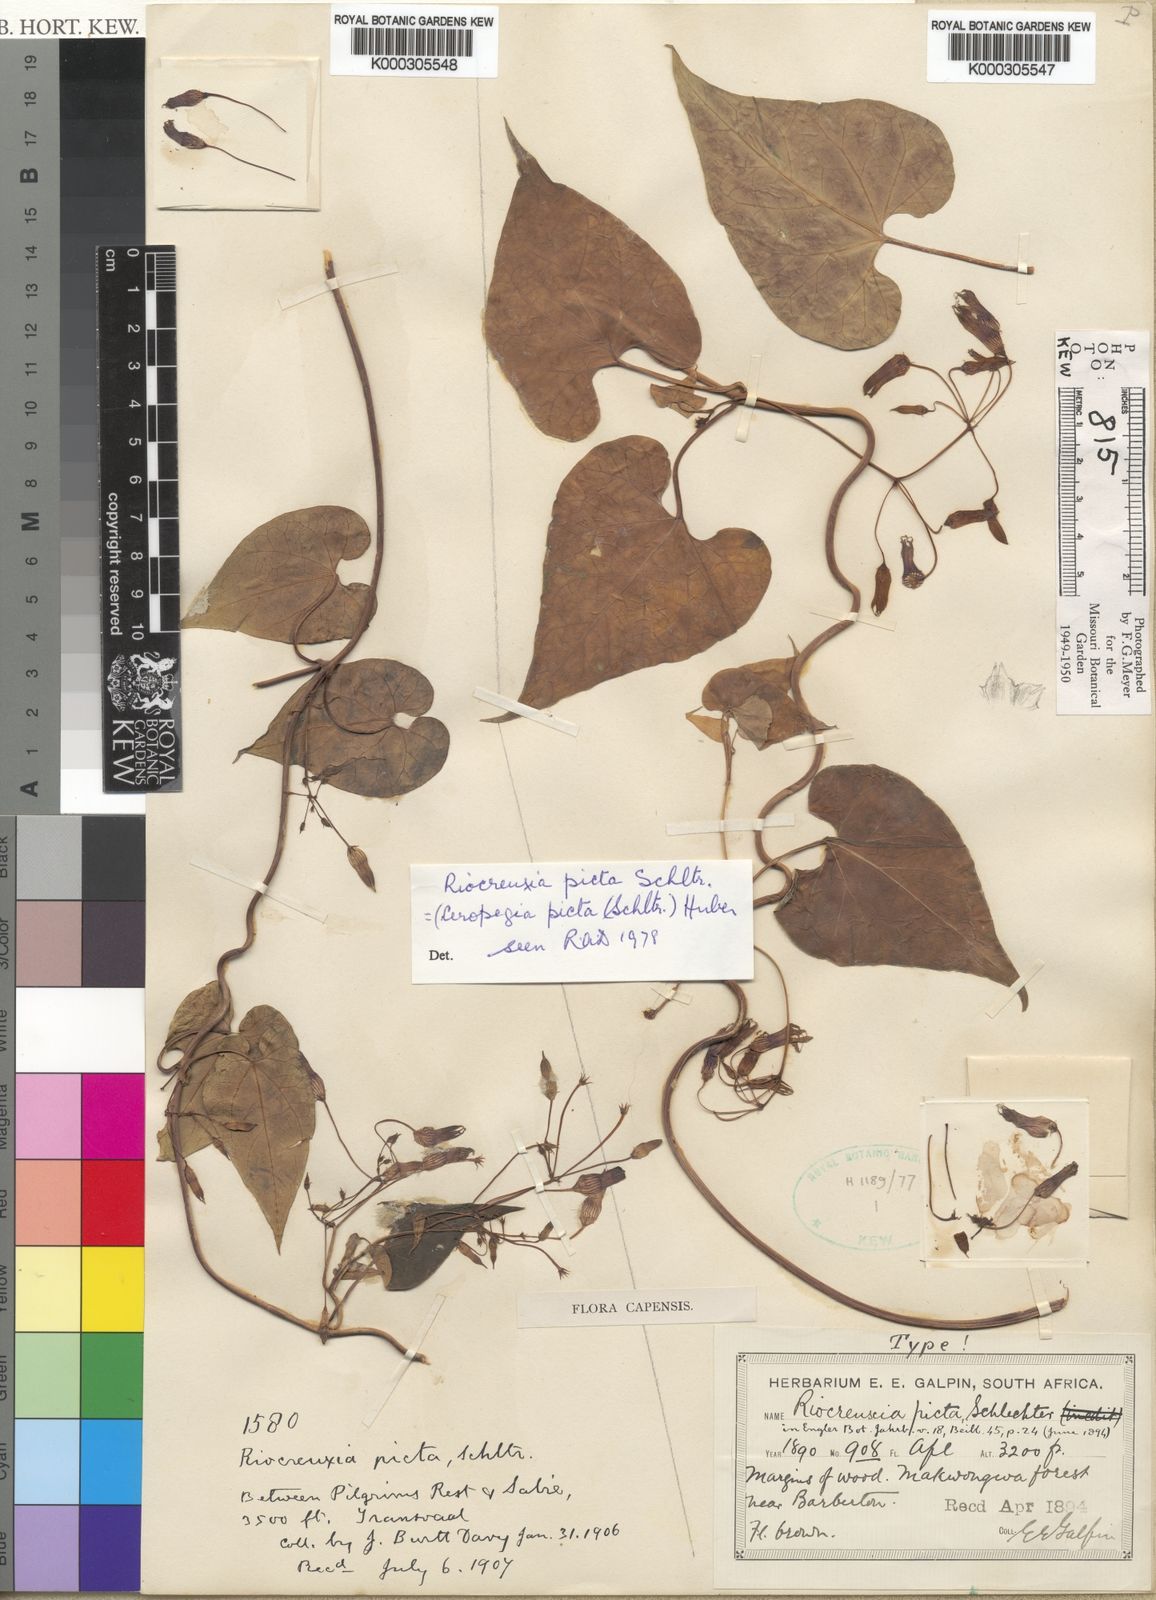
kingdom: Plantae
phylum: Tracheophyta
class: Magnoliopsida
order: Gentianales
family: Apocynaceae
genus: Riocreuxia
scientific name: Riocreuxia picta
